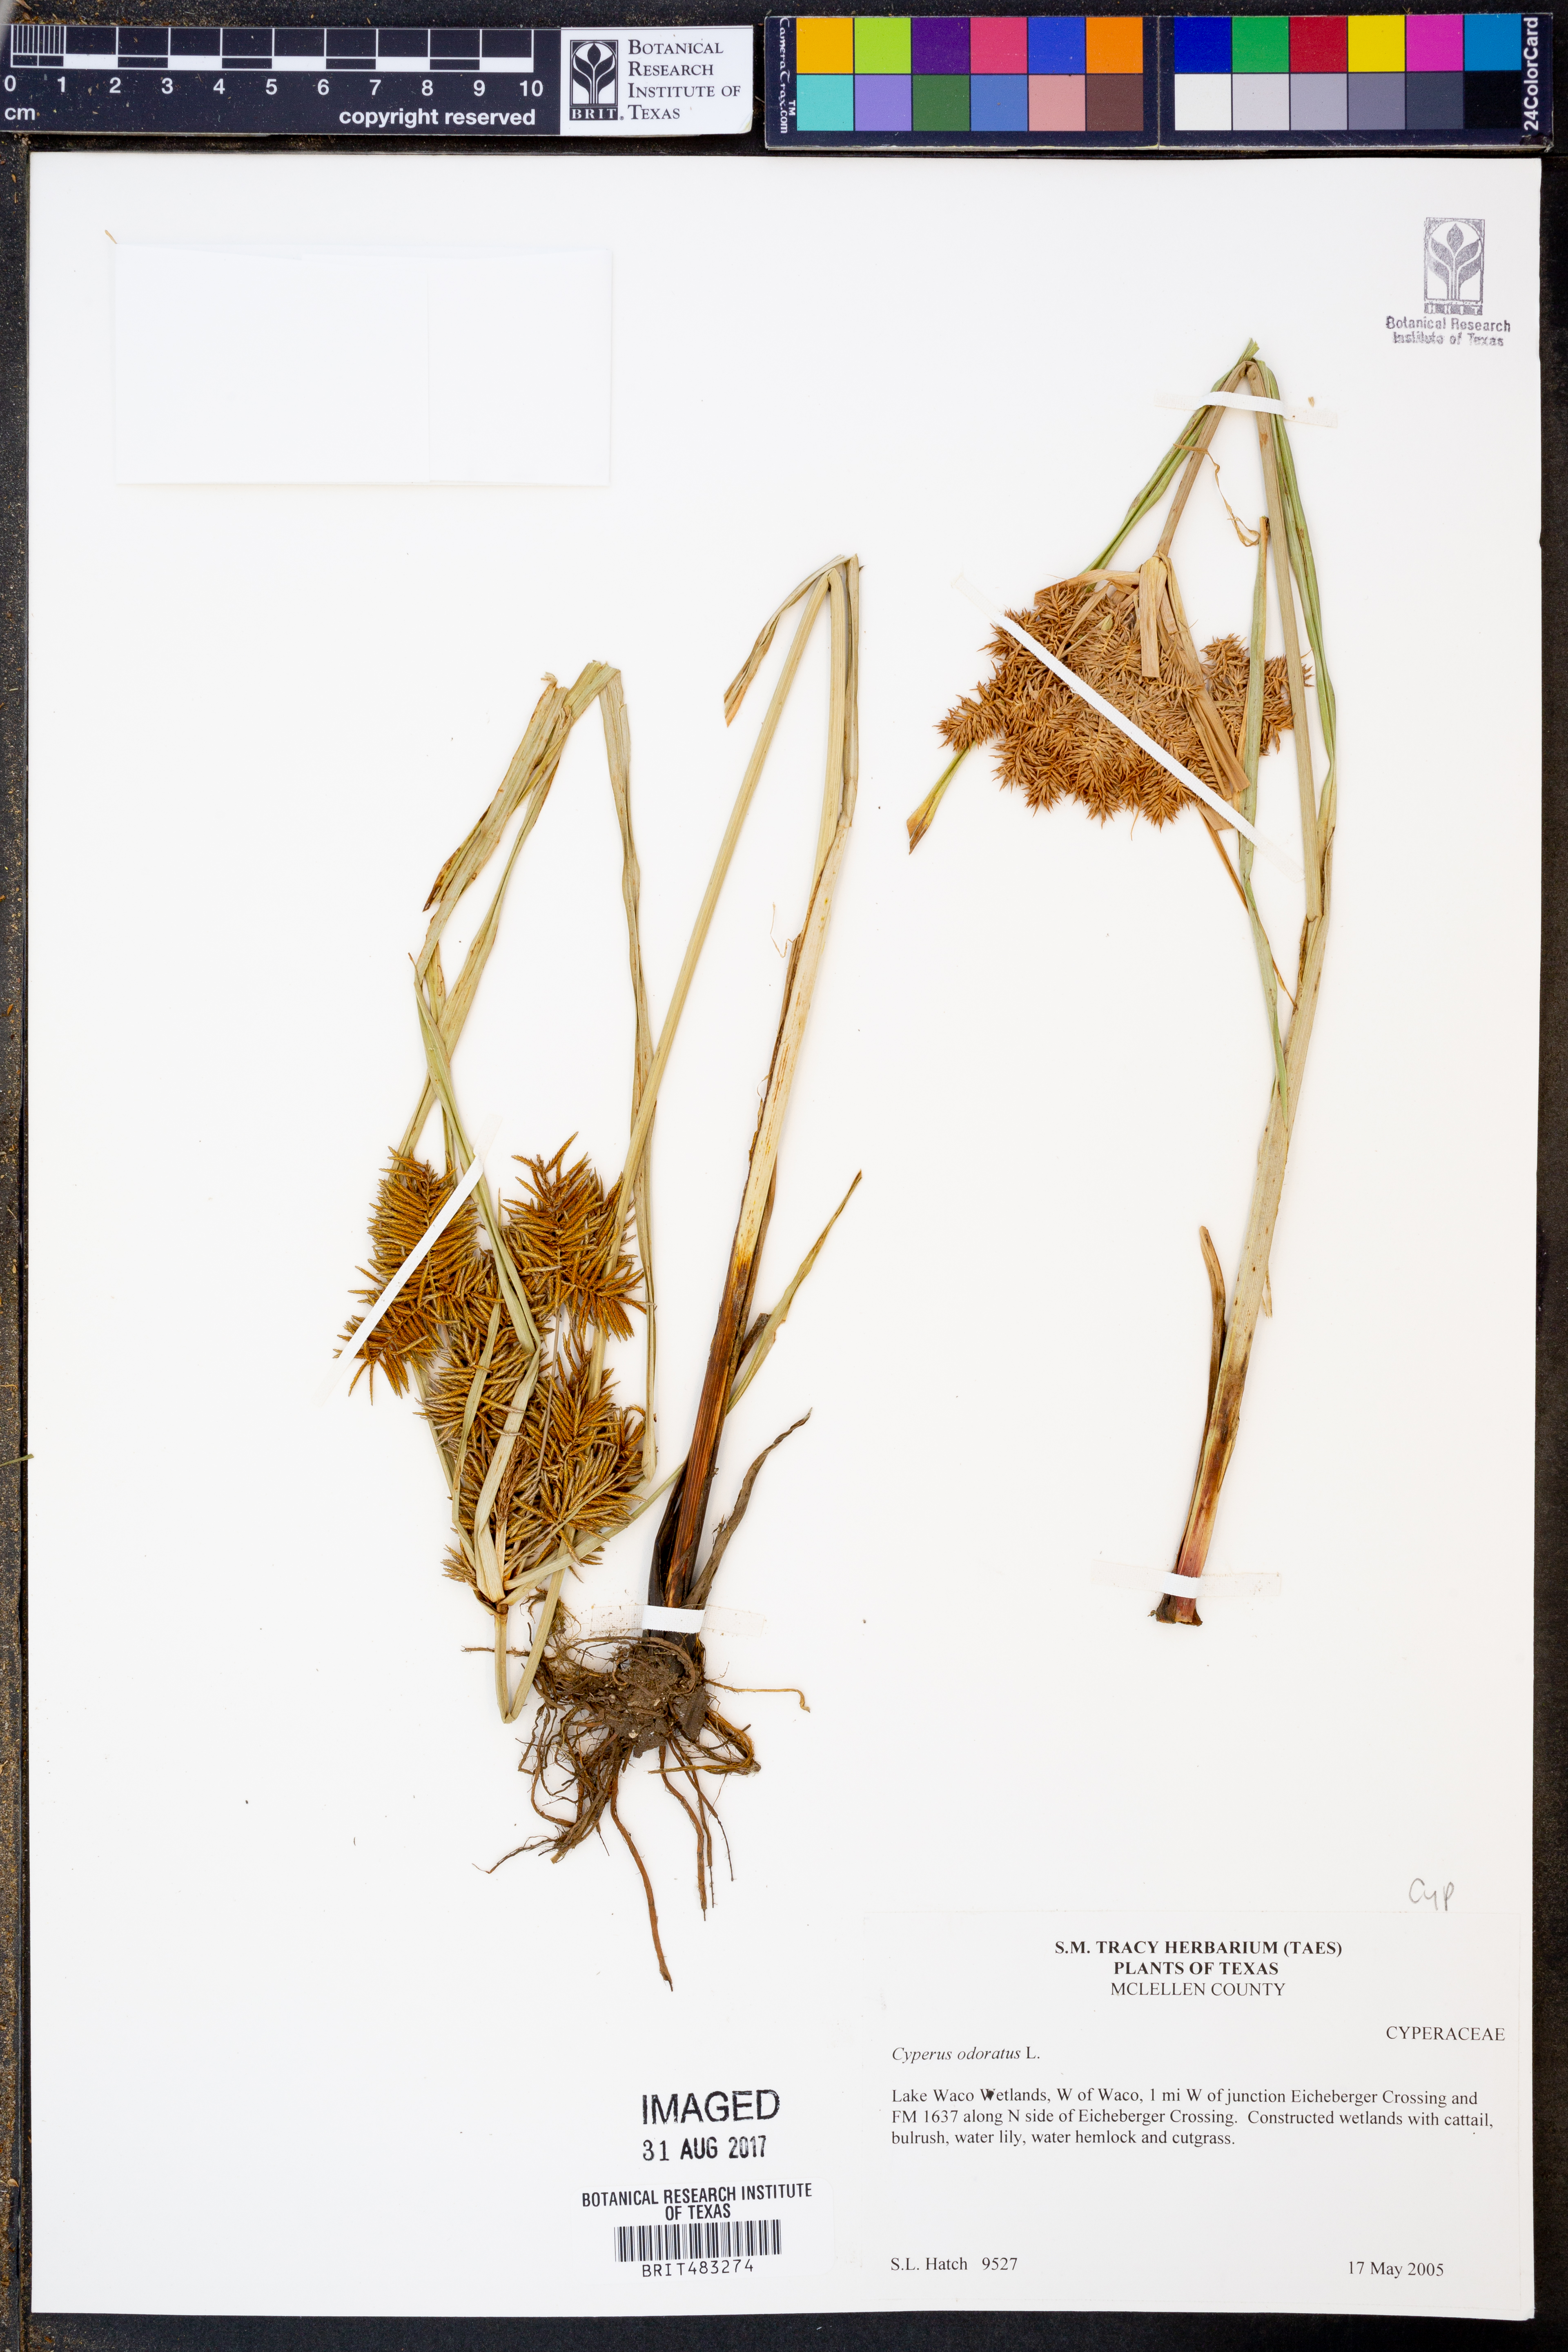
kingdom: Plantae
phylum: Tracheophyta
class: Liliopsida
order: Poales
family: Cyperaceae
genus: Cyperus
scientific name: Cyperus odoratus
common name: Fragrant flatsedge
